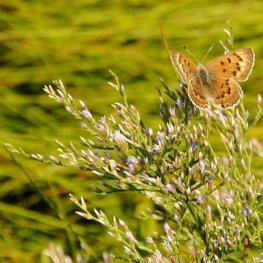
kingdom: Animalia
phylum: Arthropoda
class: Insecta
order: Lepidoptera
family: Lycaenidae
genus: Epidemia
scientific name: Epidemia dorcas
